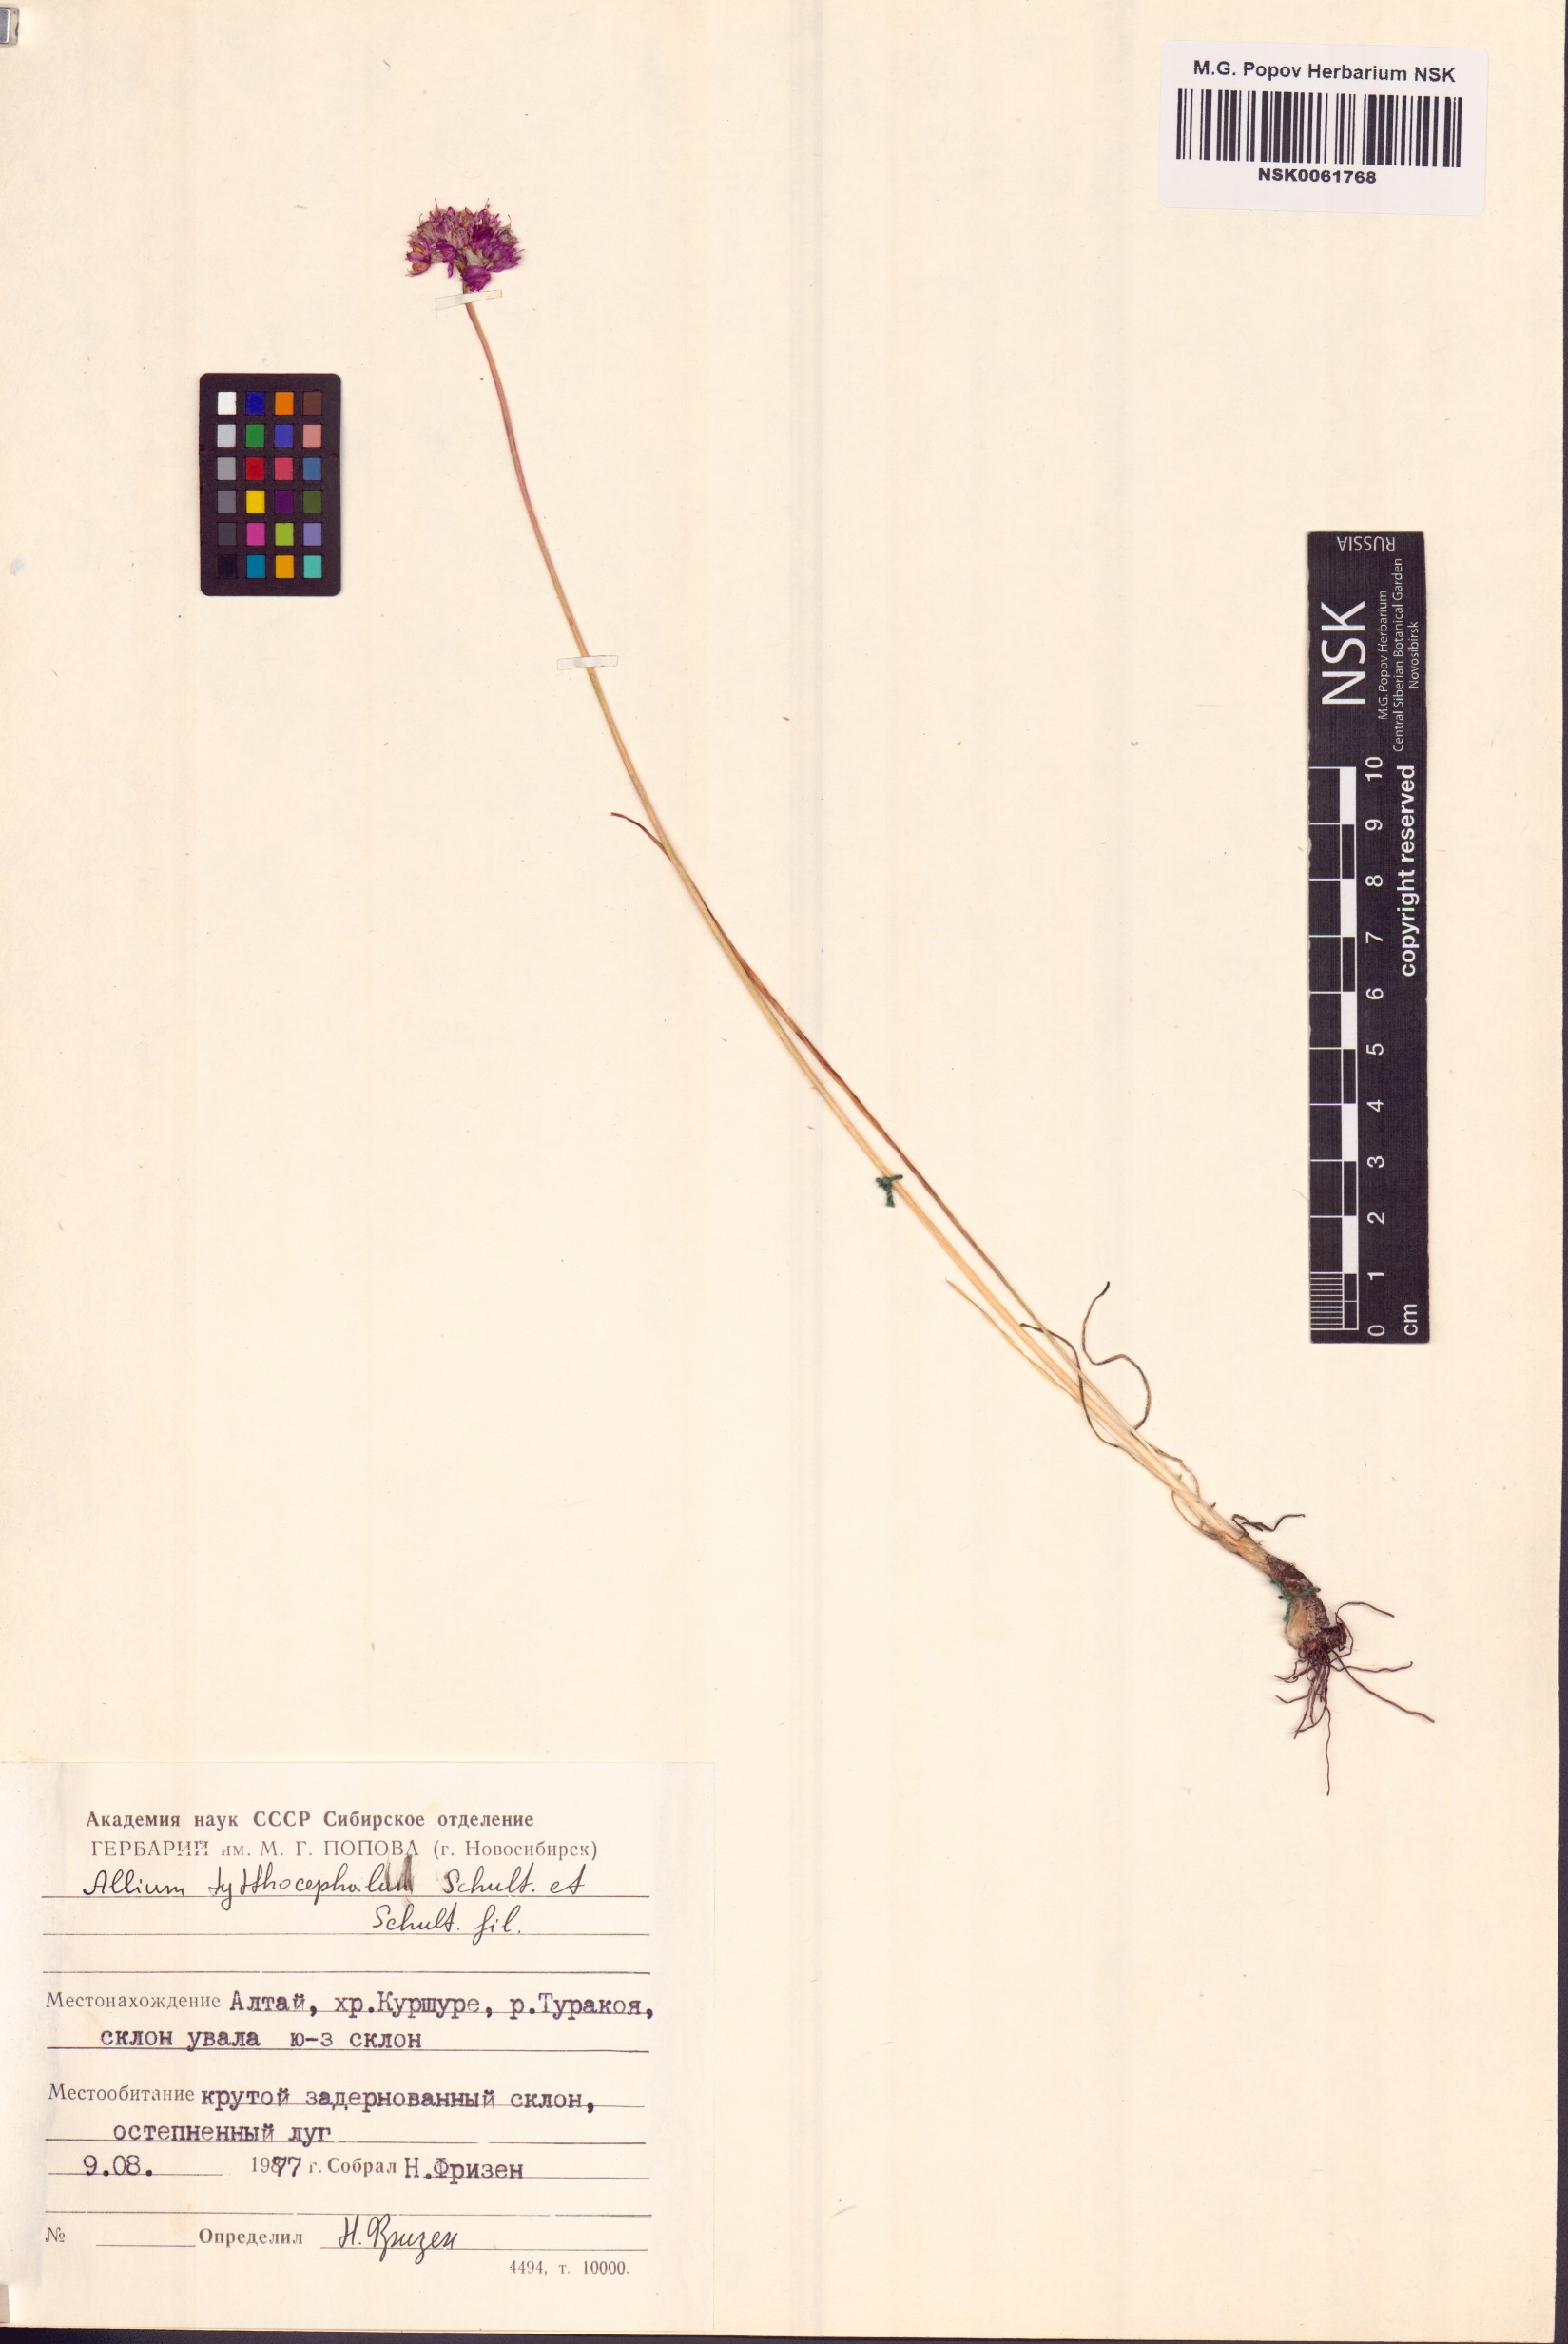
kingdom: Plantae
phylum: Tracheophyta
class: Liliopsida
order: Asparagales
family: Amaryllidaceae
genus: Allium
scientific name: Allium tytthocephalum
